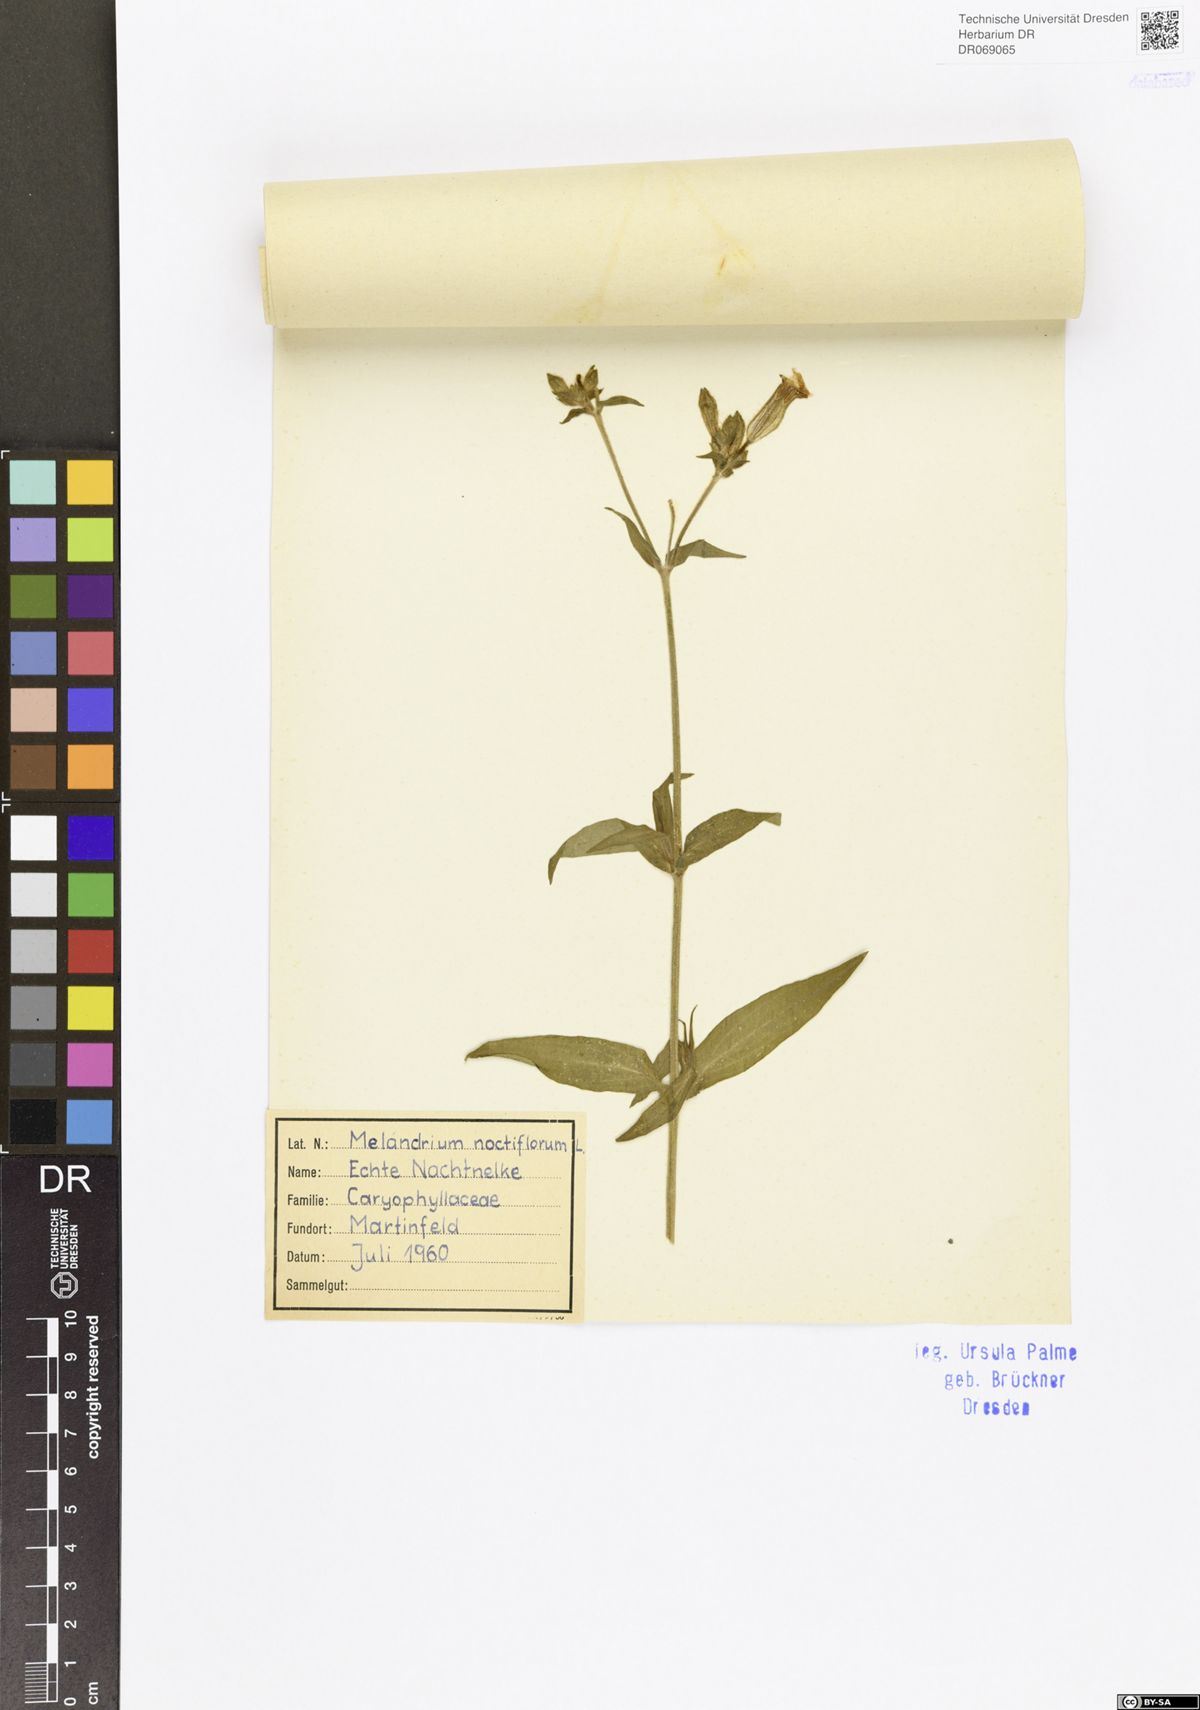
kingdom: Plantae
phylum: Tracheophyta
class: Magnoliopsida
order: Caryophyllales
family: Caryophyllaceae
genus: Silene
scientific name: Silene noctiflora
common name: Night-flowering catchfly
